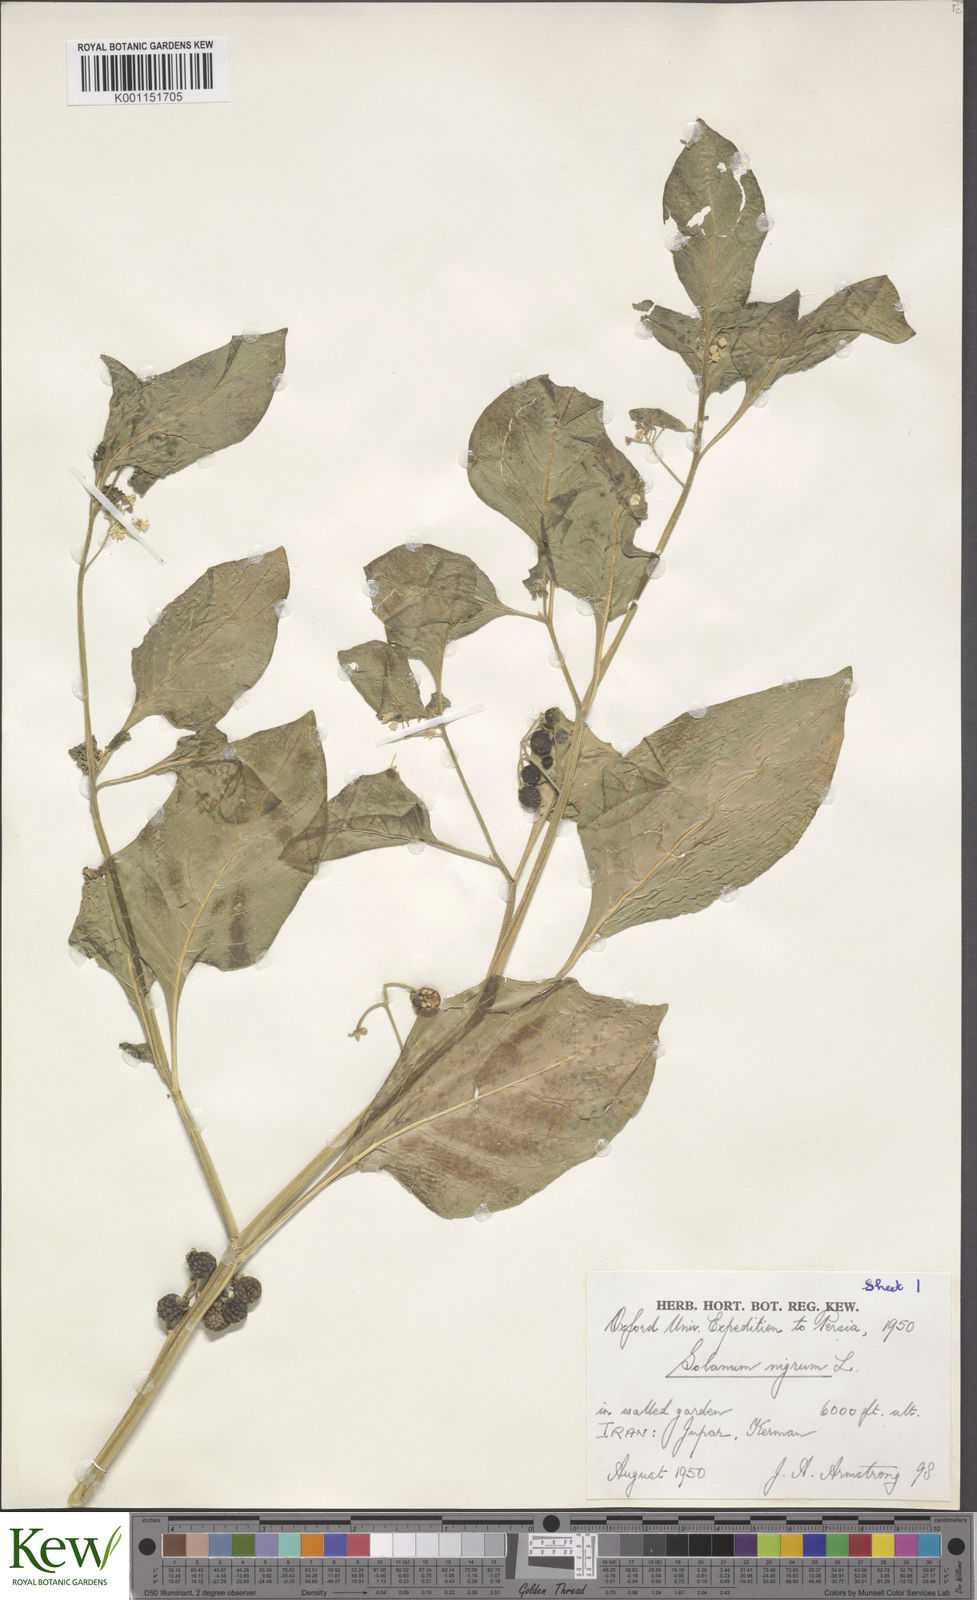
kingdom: Plantae
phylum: Tracheophyta
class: Magnoliopsida
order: Solanales
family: Solanaceae
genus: Solanum
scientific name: Solanum nigrum
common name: Black nightshade
